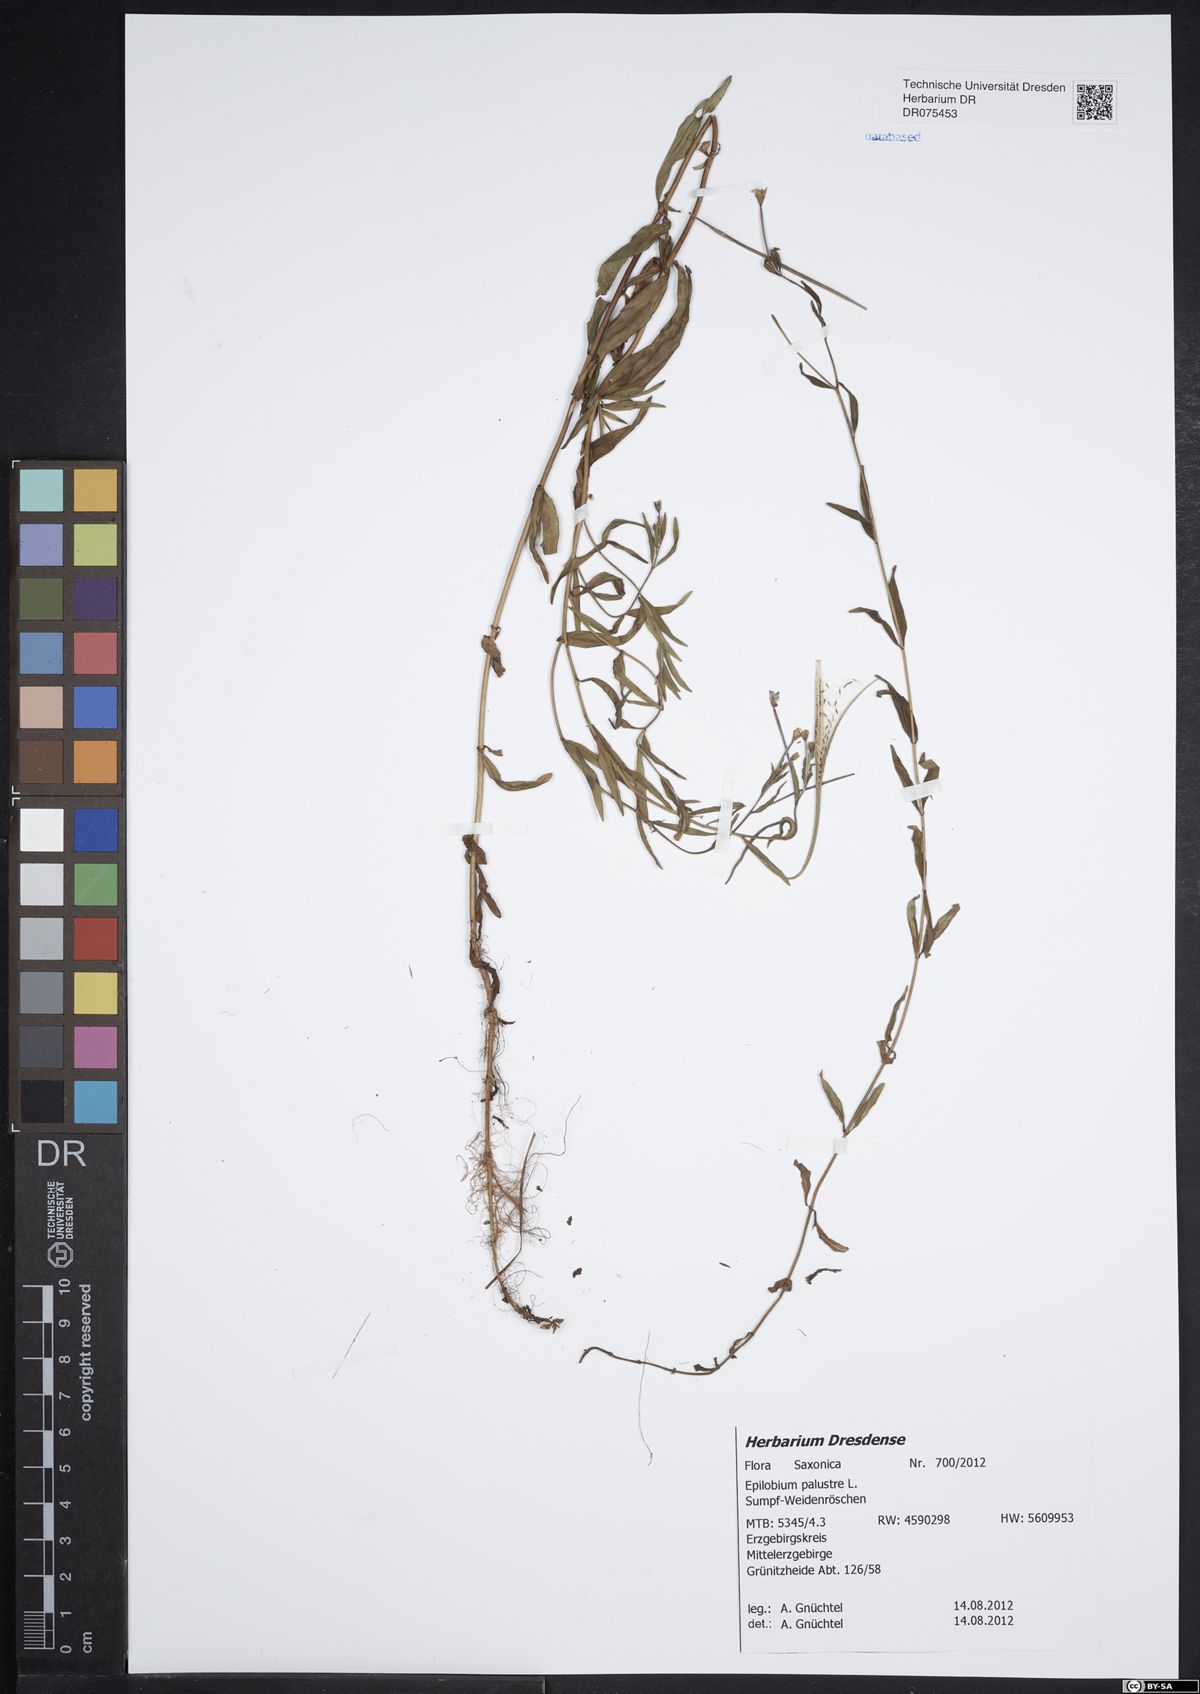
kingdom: Plantae
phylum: Tracheophyta
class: Magnoliopsida
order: Myrtales
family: Onagraceae
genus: Epilobium
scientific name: Epilobium palustre
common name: Marsh willowherb
